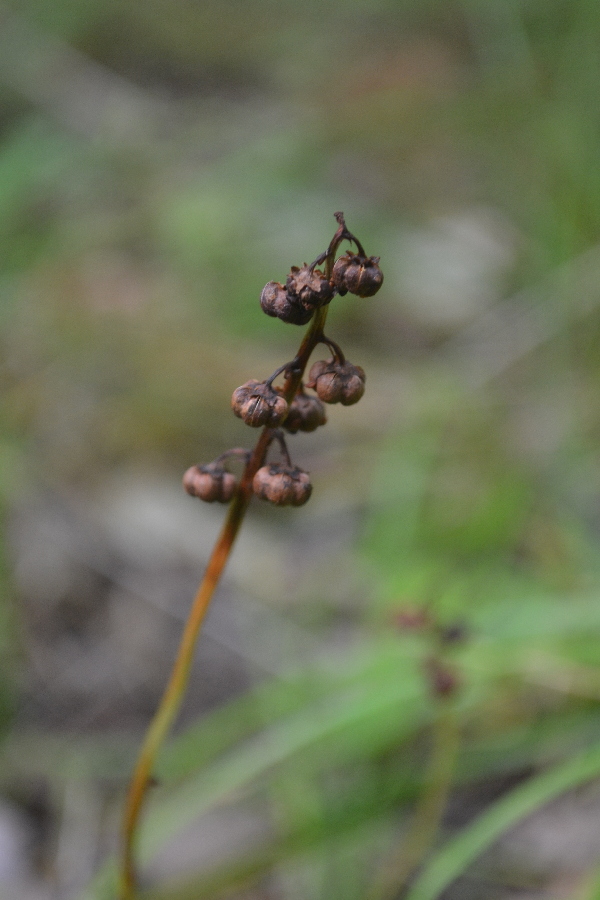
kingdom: Plantae
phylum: Tracheophyta
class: Magnoliopsida
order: Ericales
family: Ericaceae
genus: Orthilia
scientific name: Orthilia secunda
